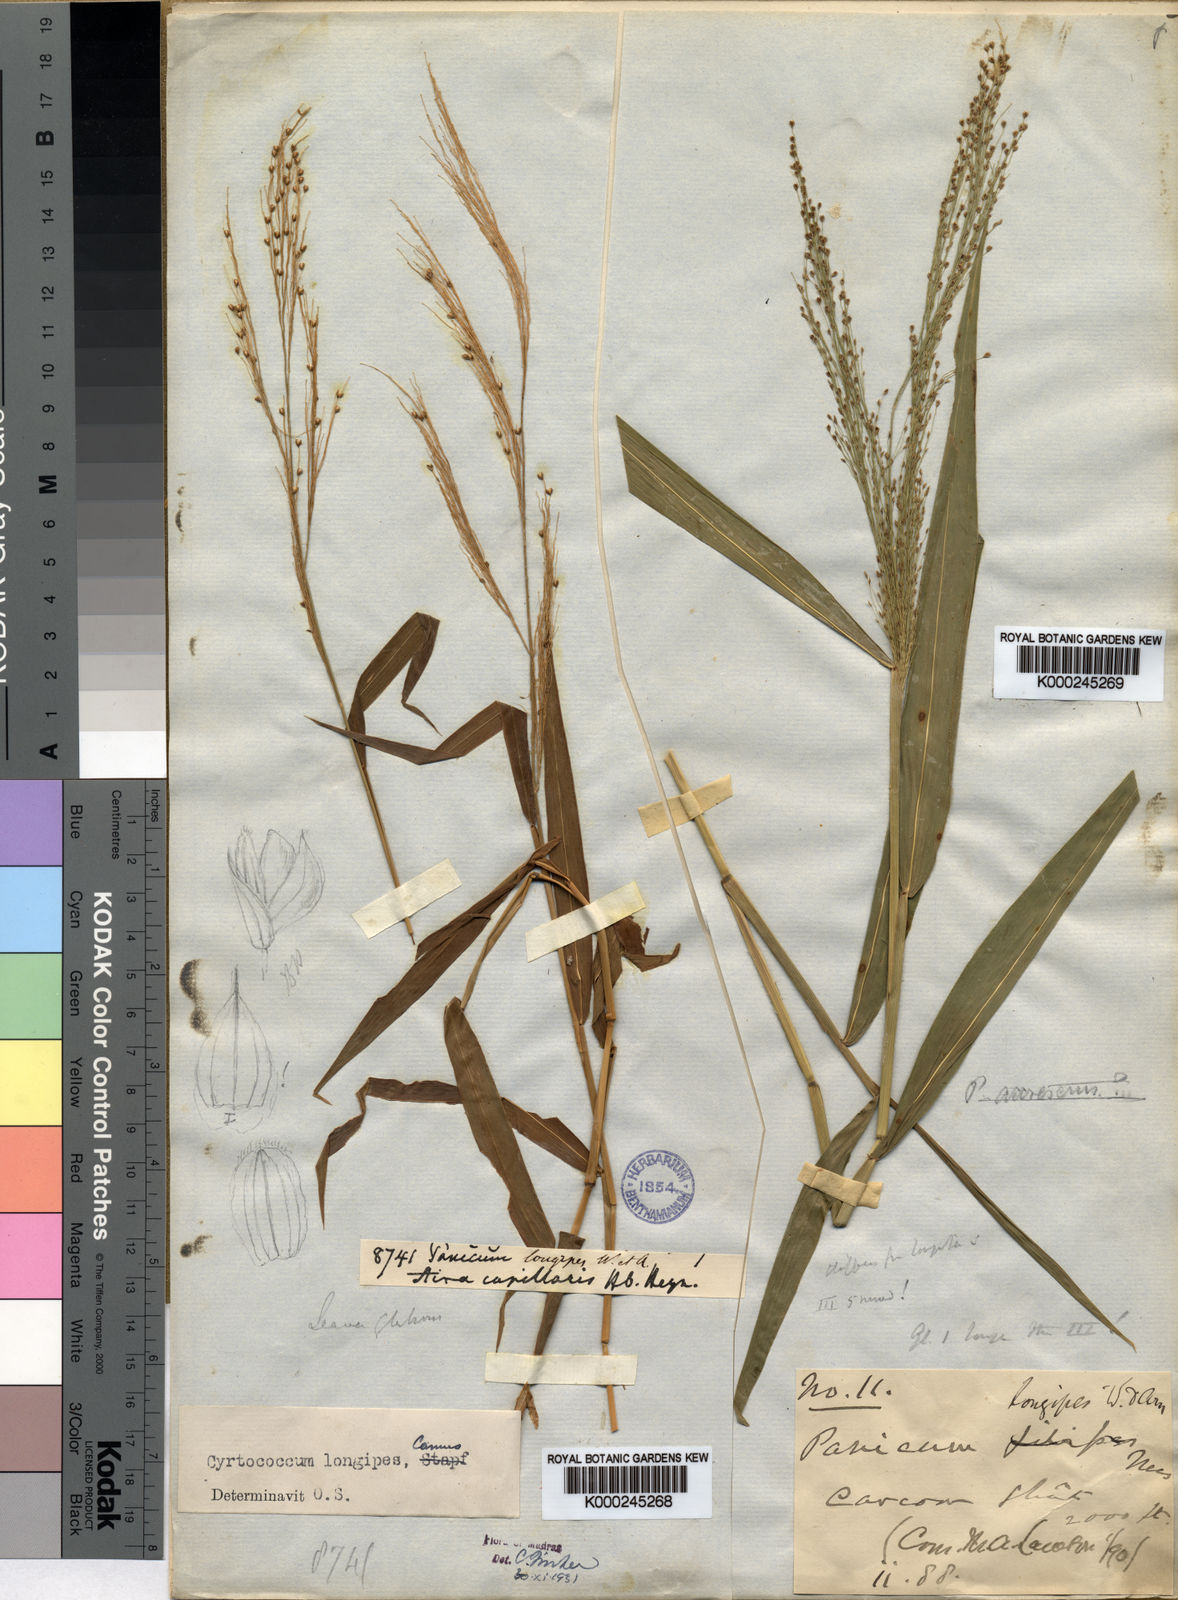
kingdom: Plantae
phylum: Tracheophyta
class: Liliopsida
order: Poales
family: Poaceae
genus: Cyrtococcum
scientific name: Cyrtococcum longipes
